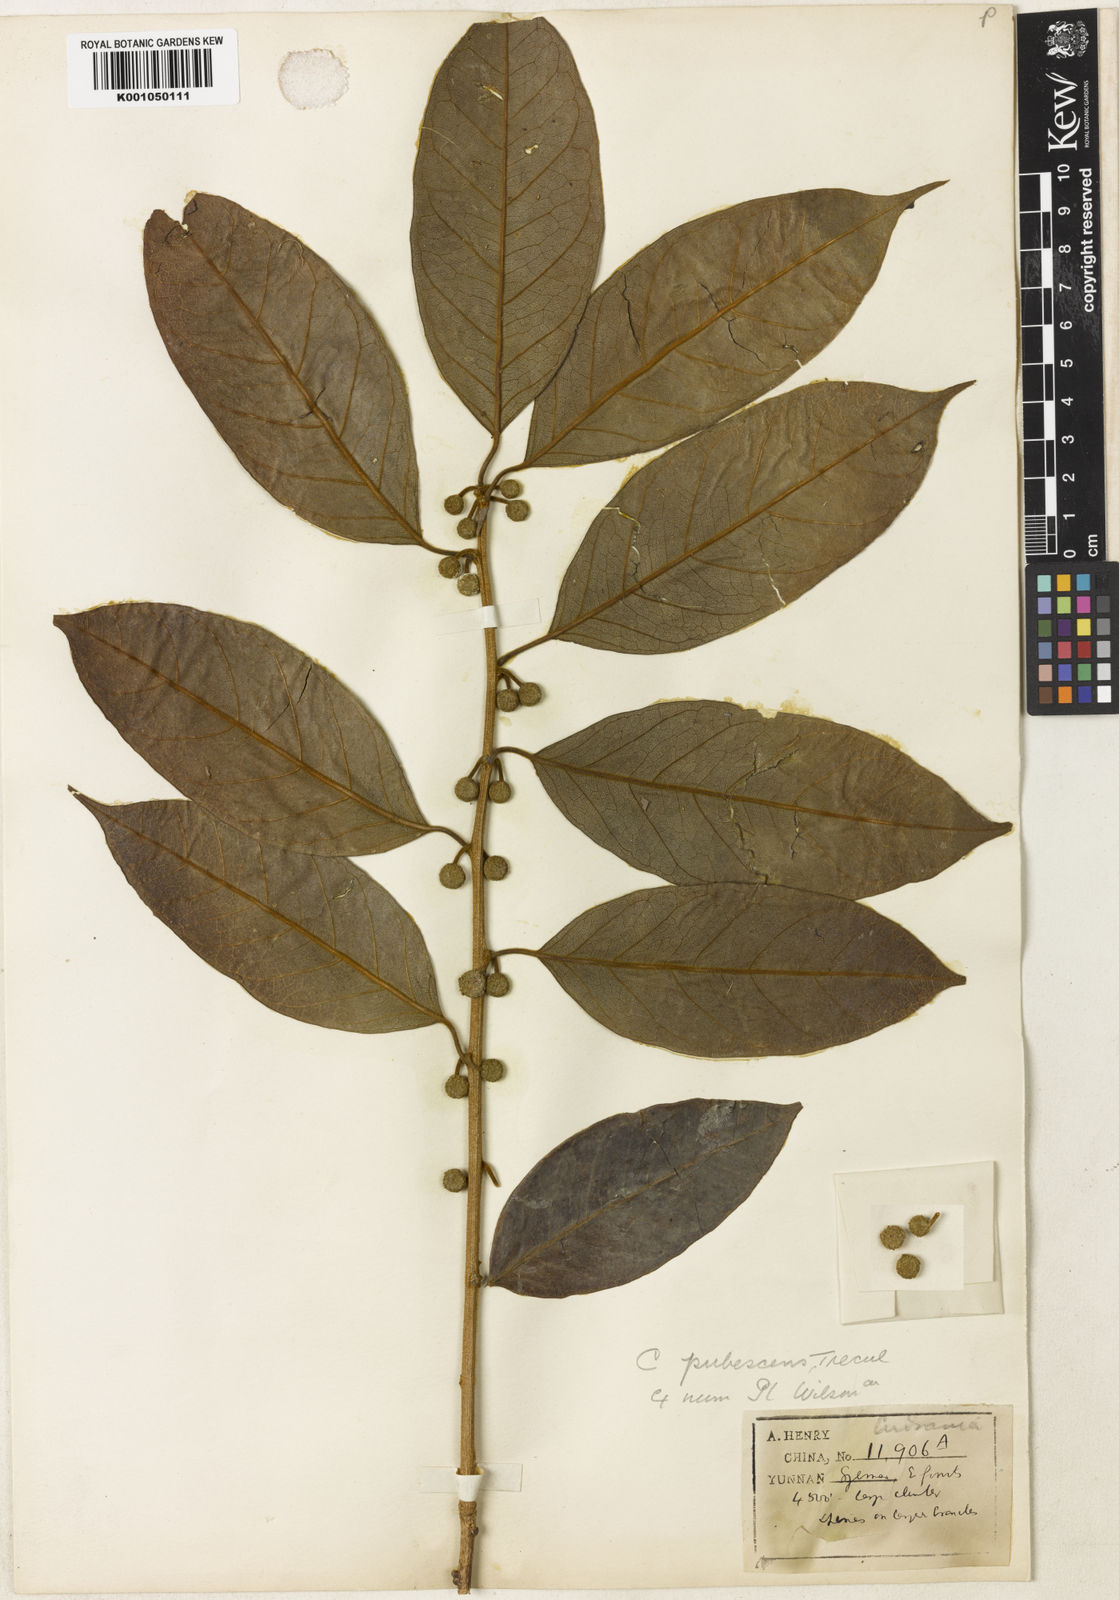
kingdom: Plantae
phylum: Tracheophyta
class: Magnoliopsida
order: Rosales
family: Moraceae
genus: Maclura
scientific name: Maclura
